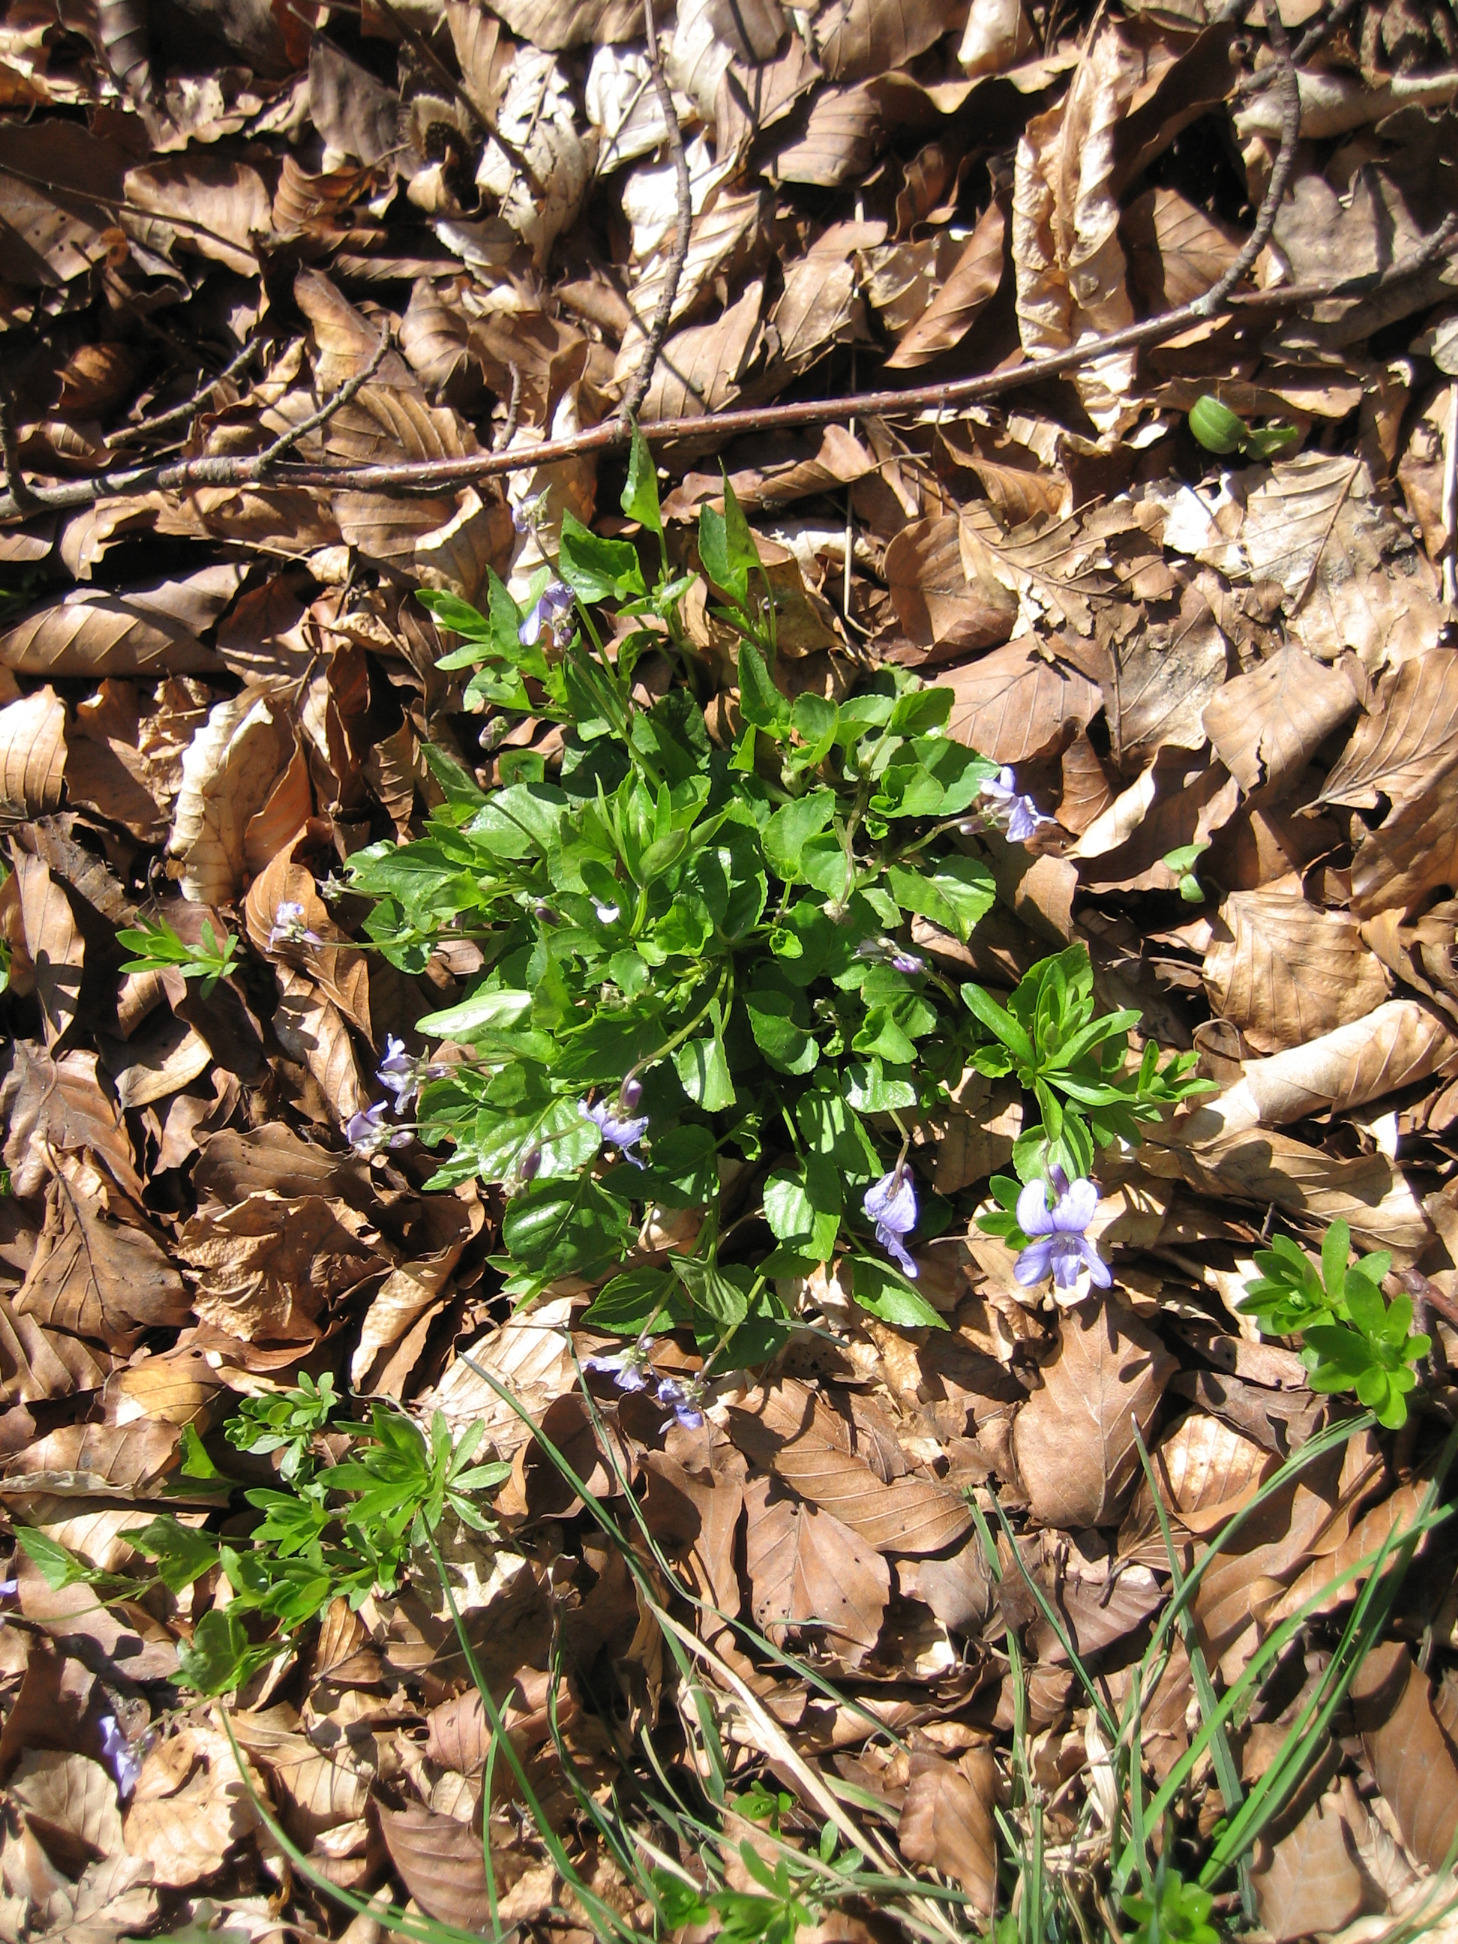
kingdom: Plantae
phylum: Tracheophyta
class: Magnoliopsida
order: Malpighiales
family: Violaceae
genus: Viola
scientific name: Viola reichenbachiana
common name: Skov-viol
